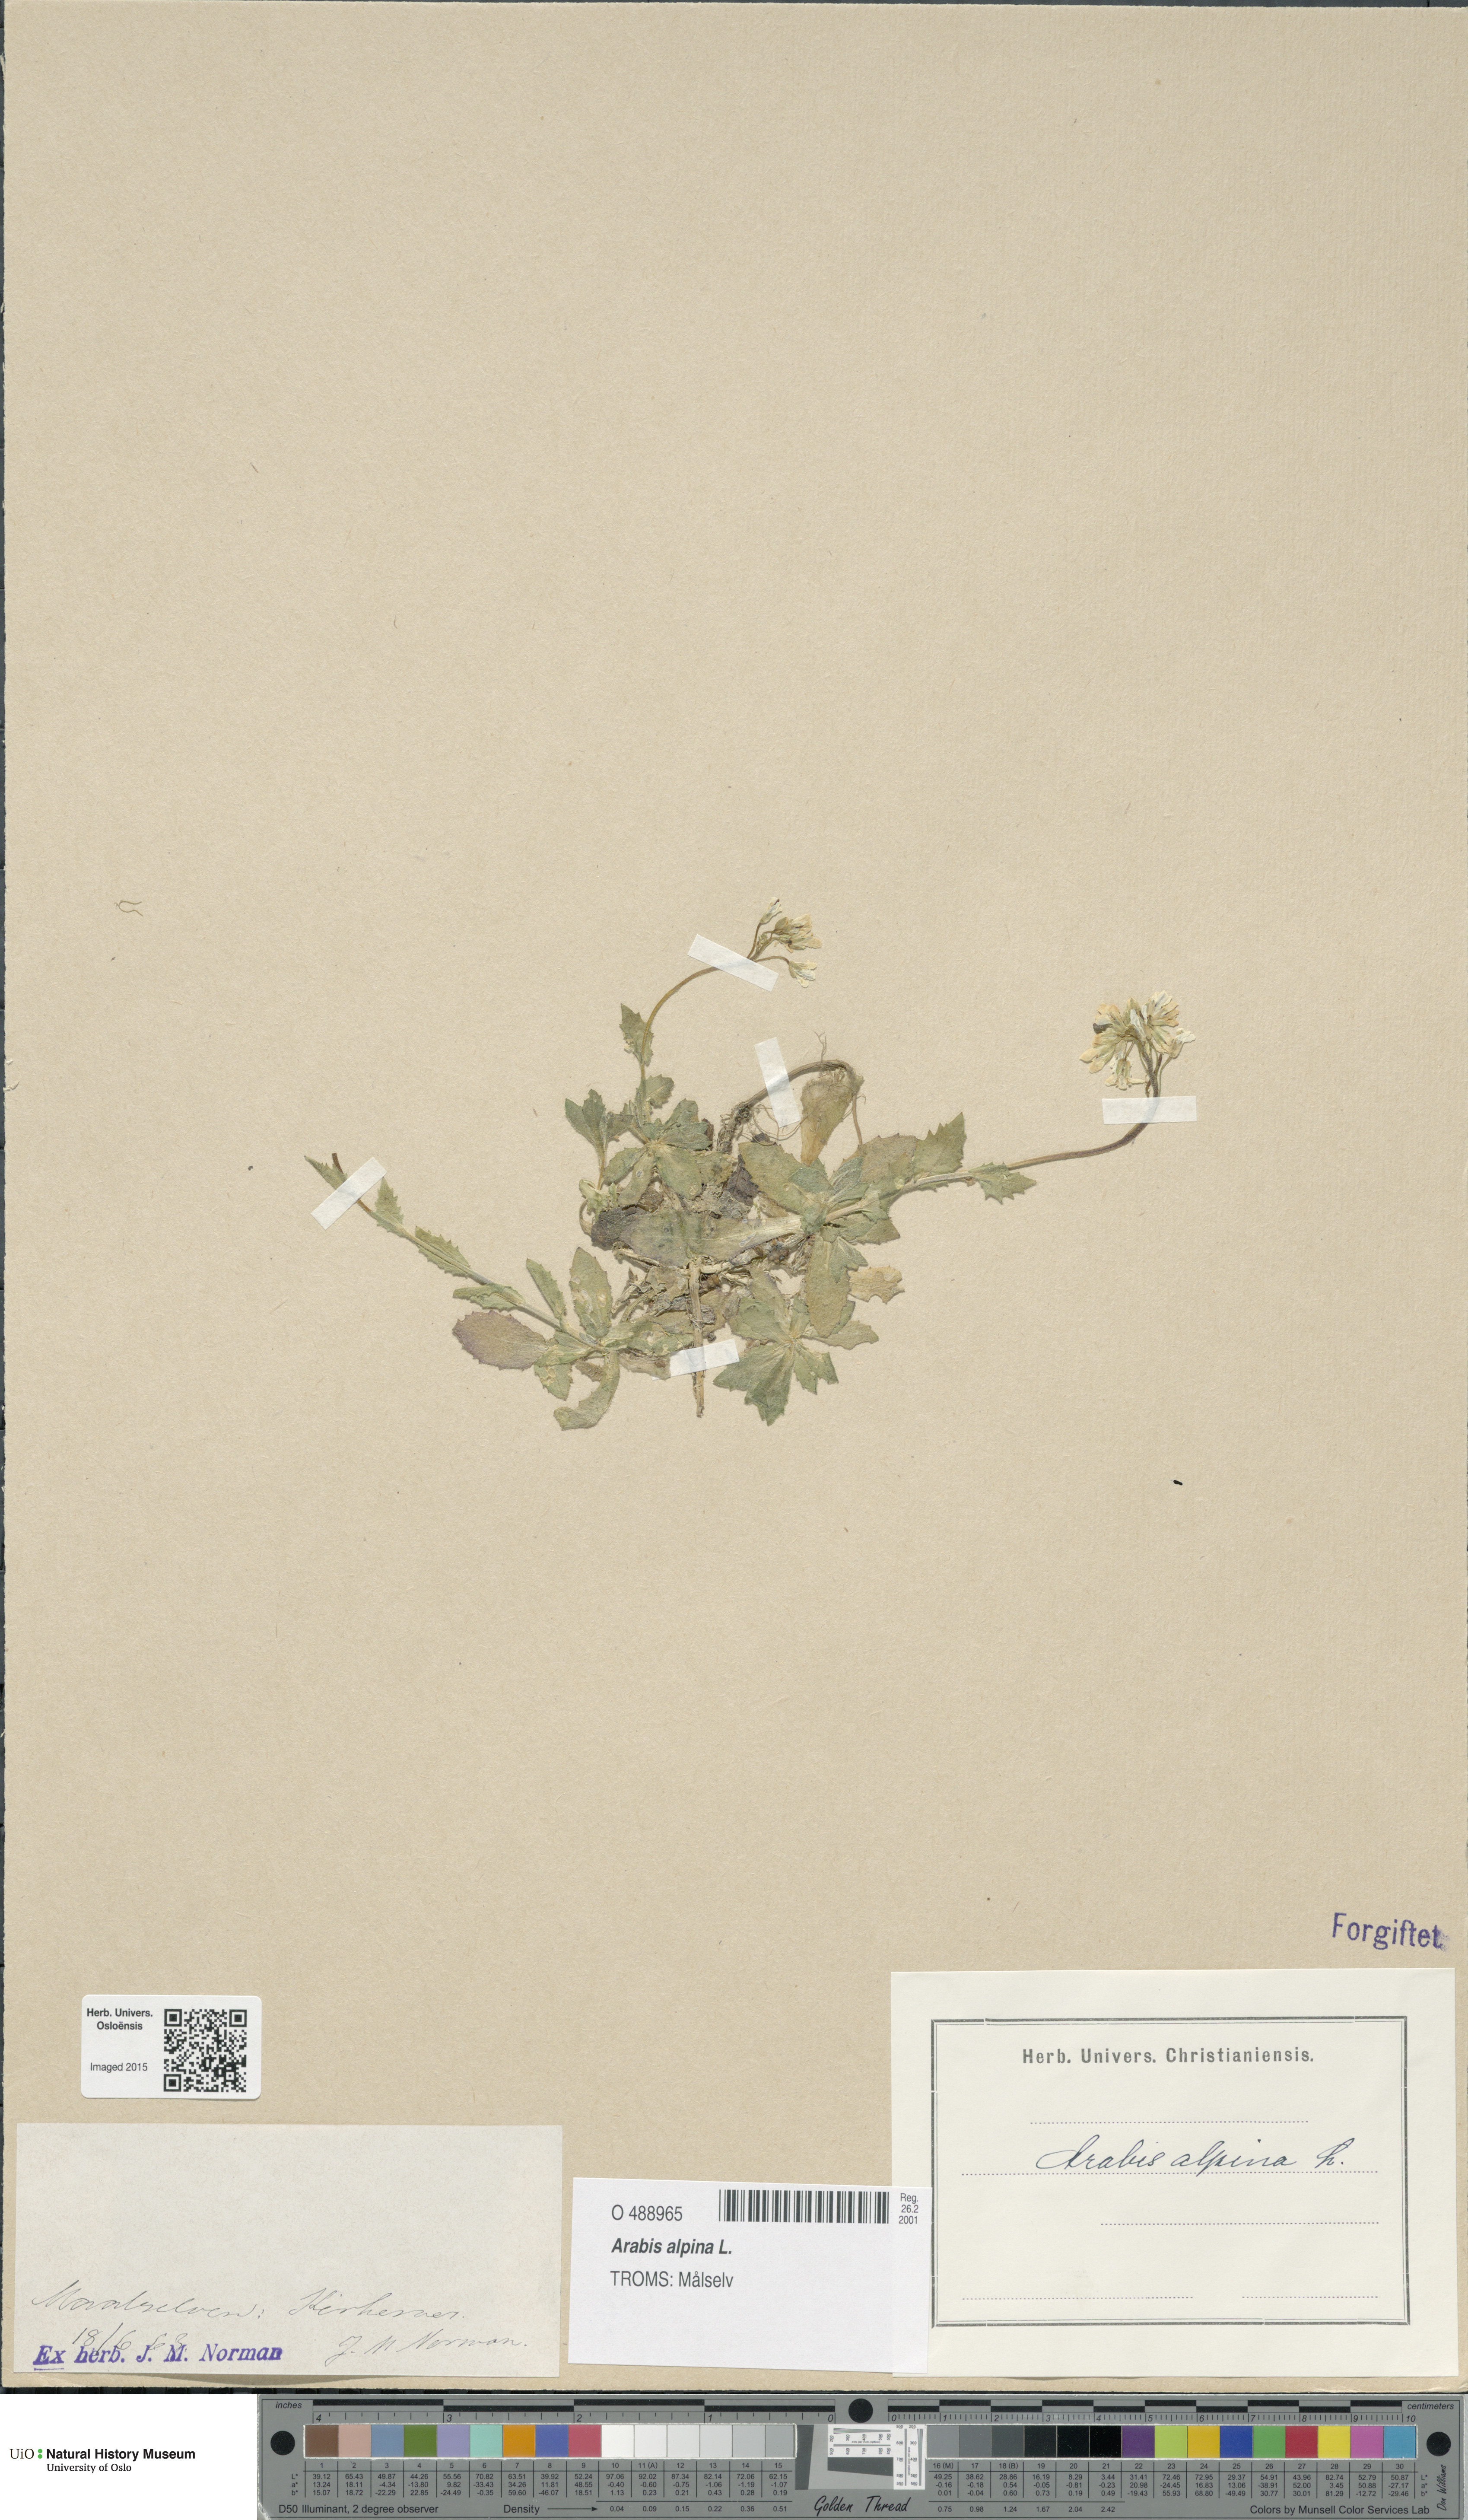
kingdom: Plantae
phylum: Tracheophyta
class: Magnoliopsida
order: Brassicales
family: Brassicaceae
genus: Arabis
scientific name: Arabis alpina
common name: Alpine rock-cress
